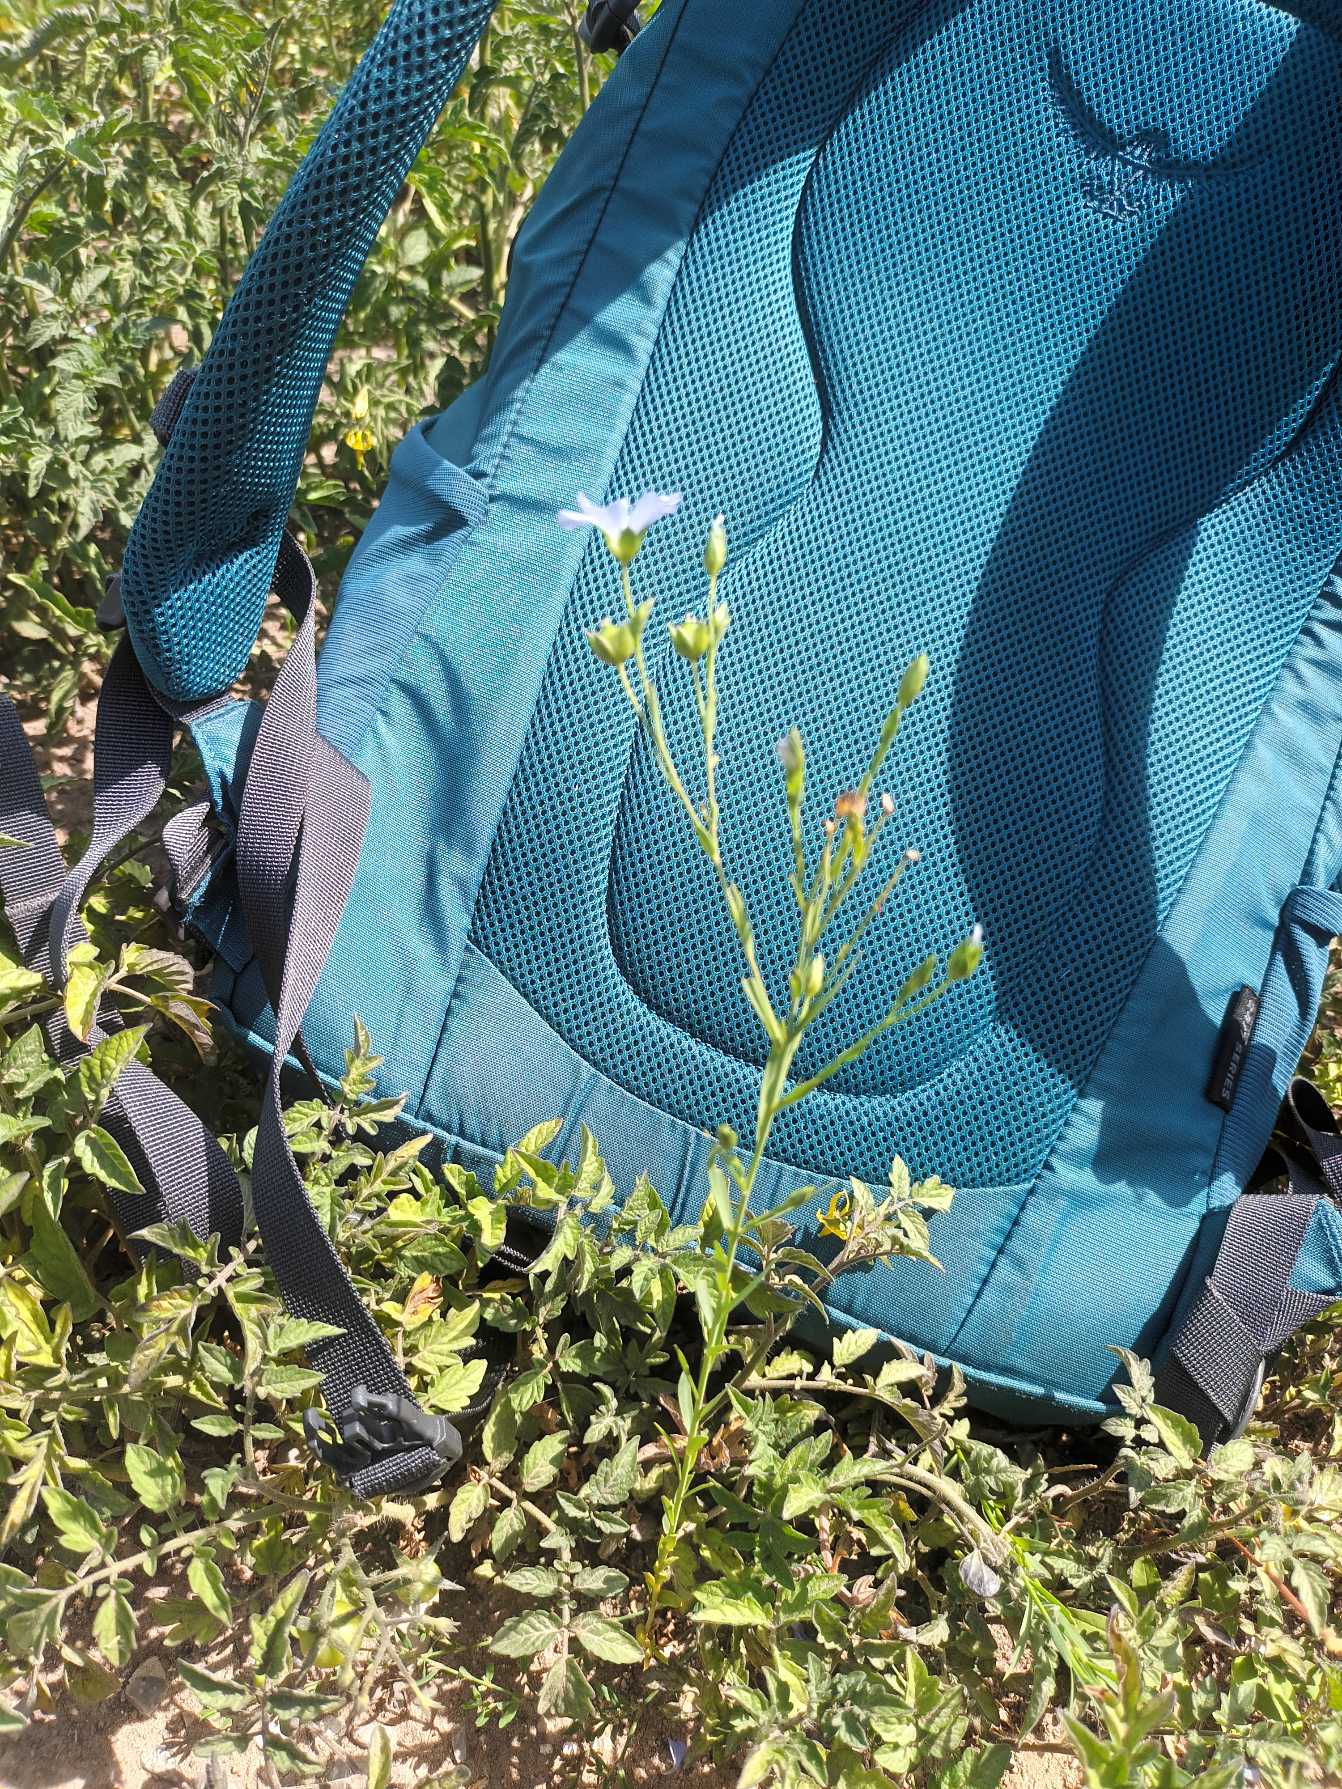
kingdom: Plantae
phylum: Tracheophyta
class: Magnoliopsida
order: Malpighiales
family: Linaceae
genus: Linum
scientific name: Linum usitatissimum
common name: Almindelig hør
